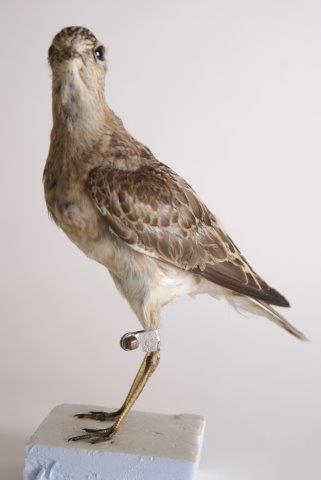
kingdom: Animalia
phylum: Chordata
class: Aves
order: Charadriiformes
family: Charadriidae
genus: Charadrius
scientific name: Charadrius morinellus
